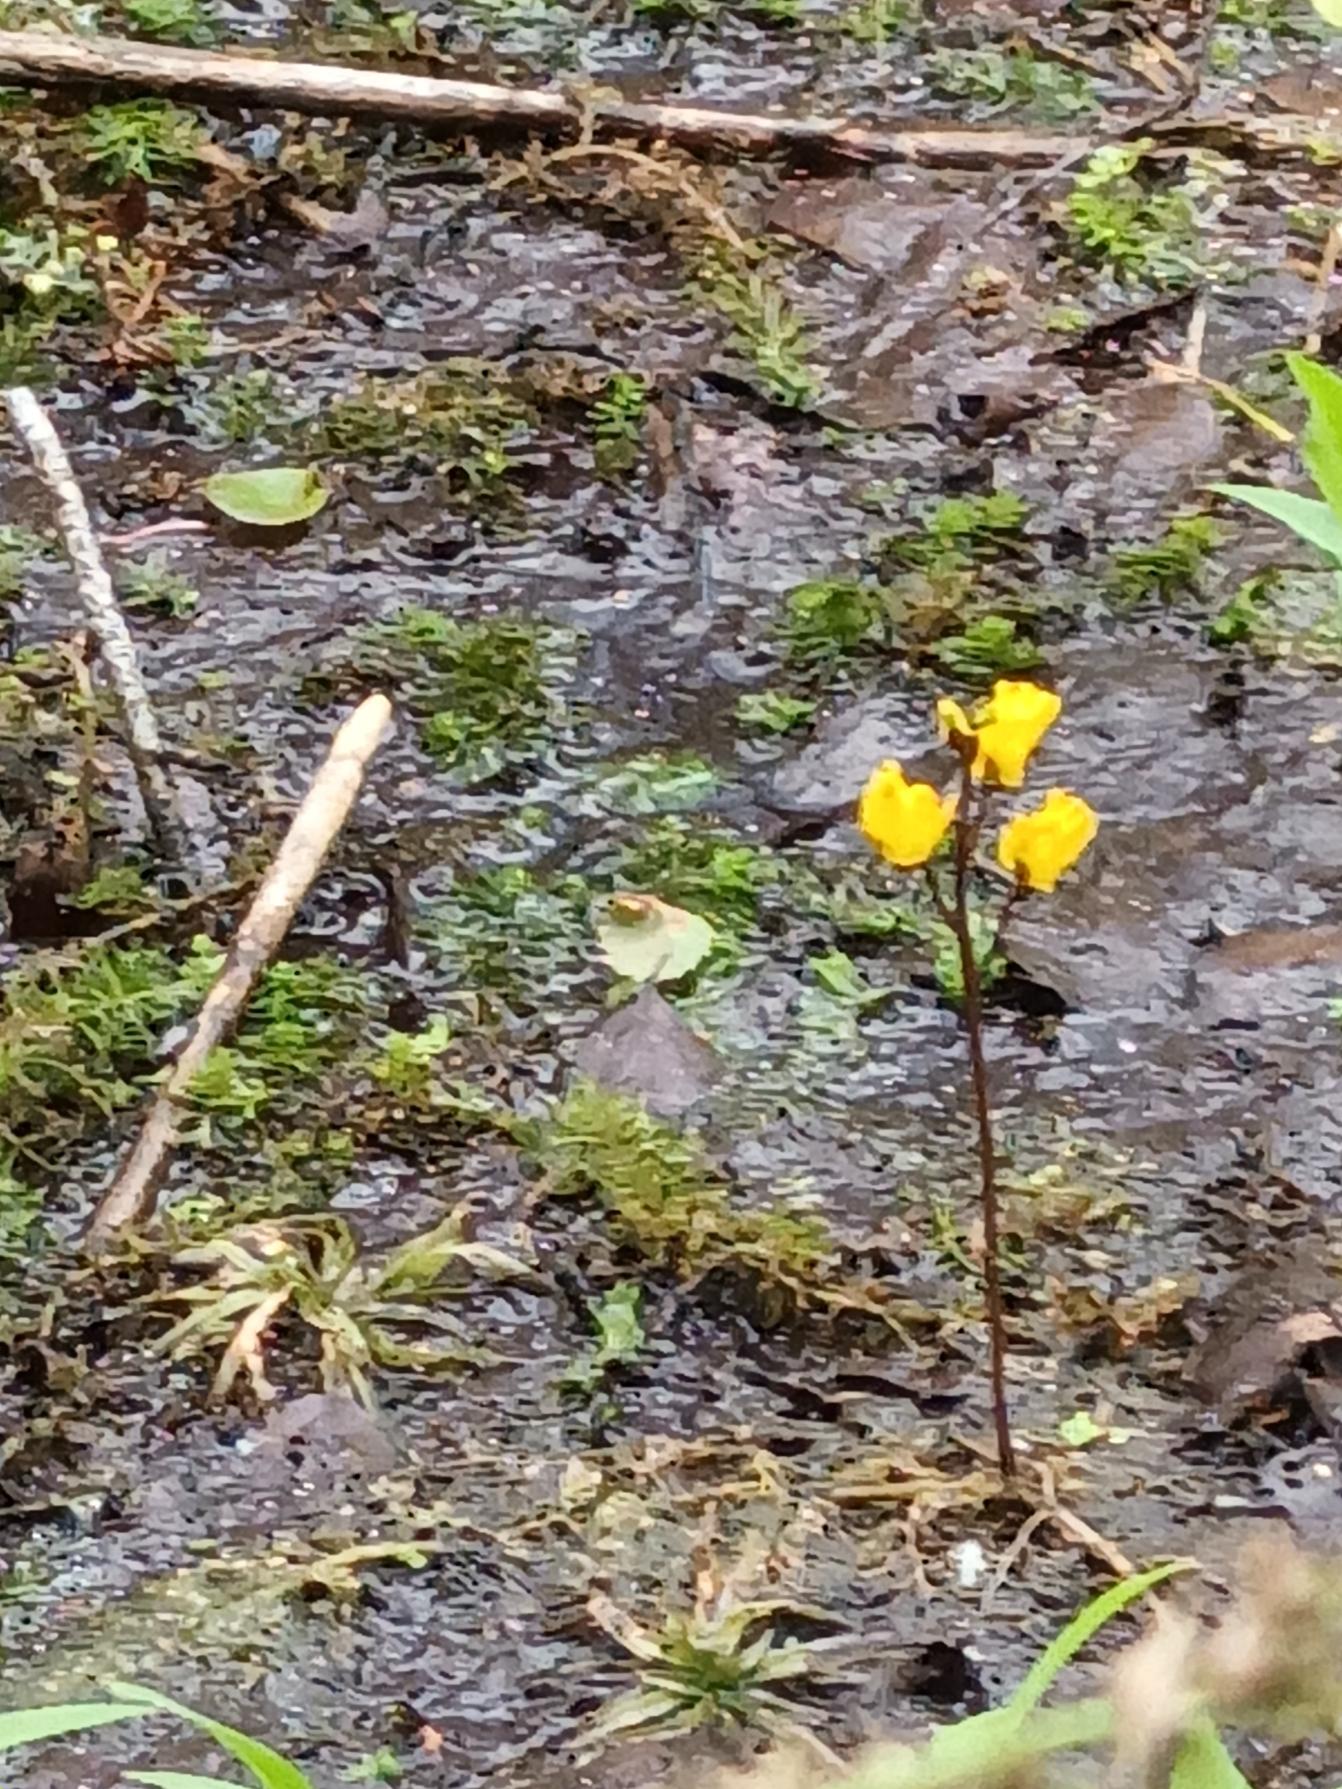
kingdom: Plantae
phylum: Tracheophyta
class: Magnoliopsida
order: Lamiales
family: Lentibulariaceae
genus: Utricularia
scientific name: Utricularia vulgaris
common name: Almindelig blærerod
